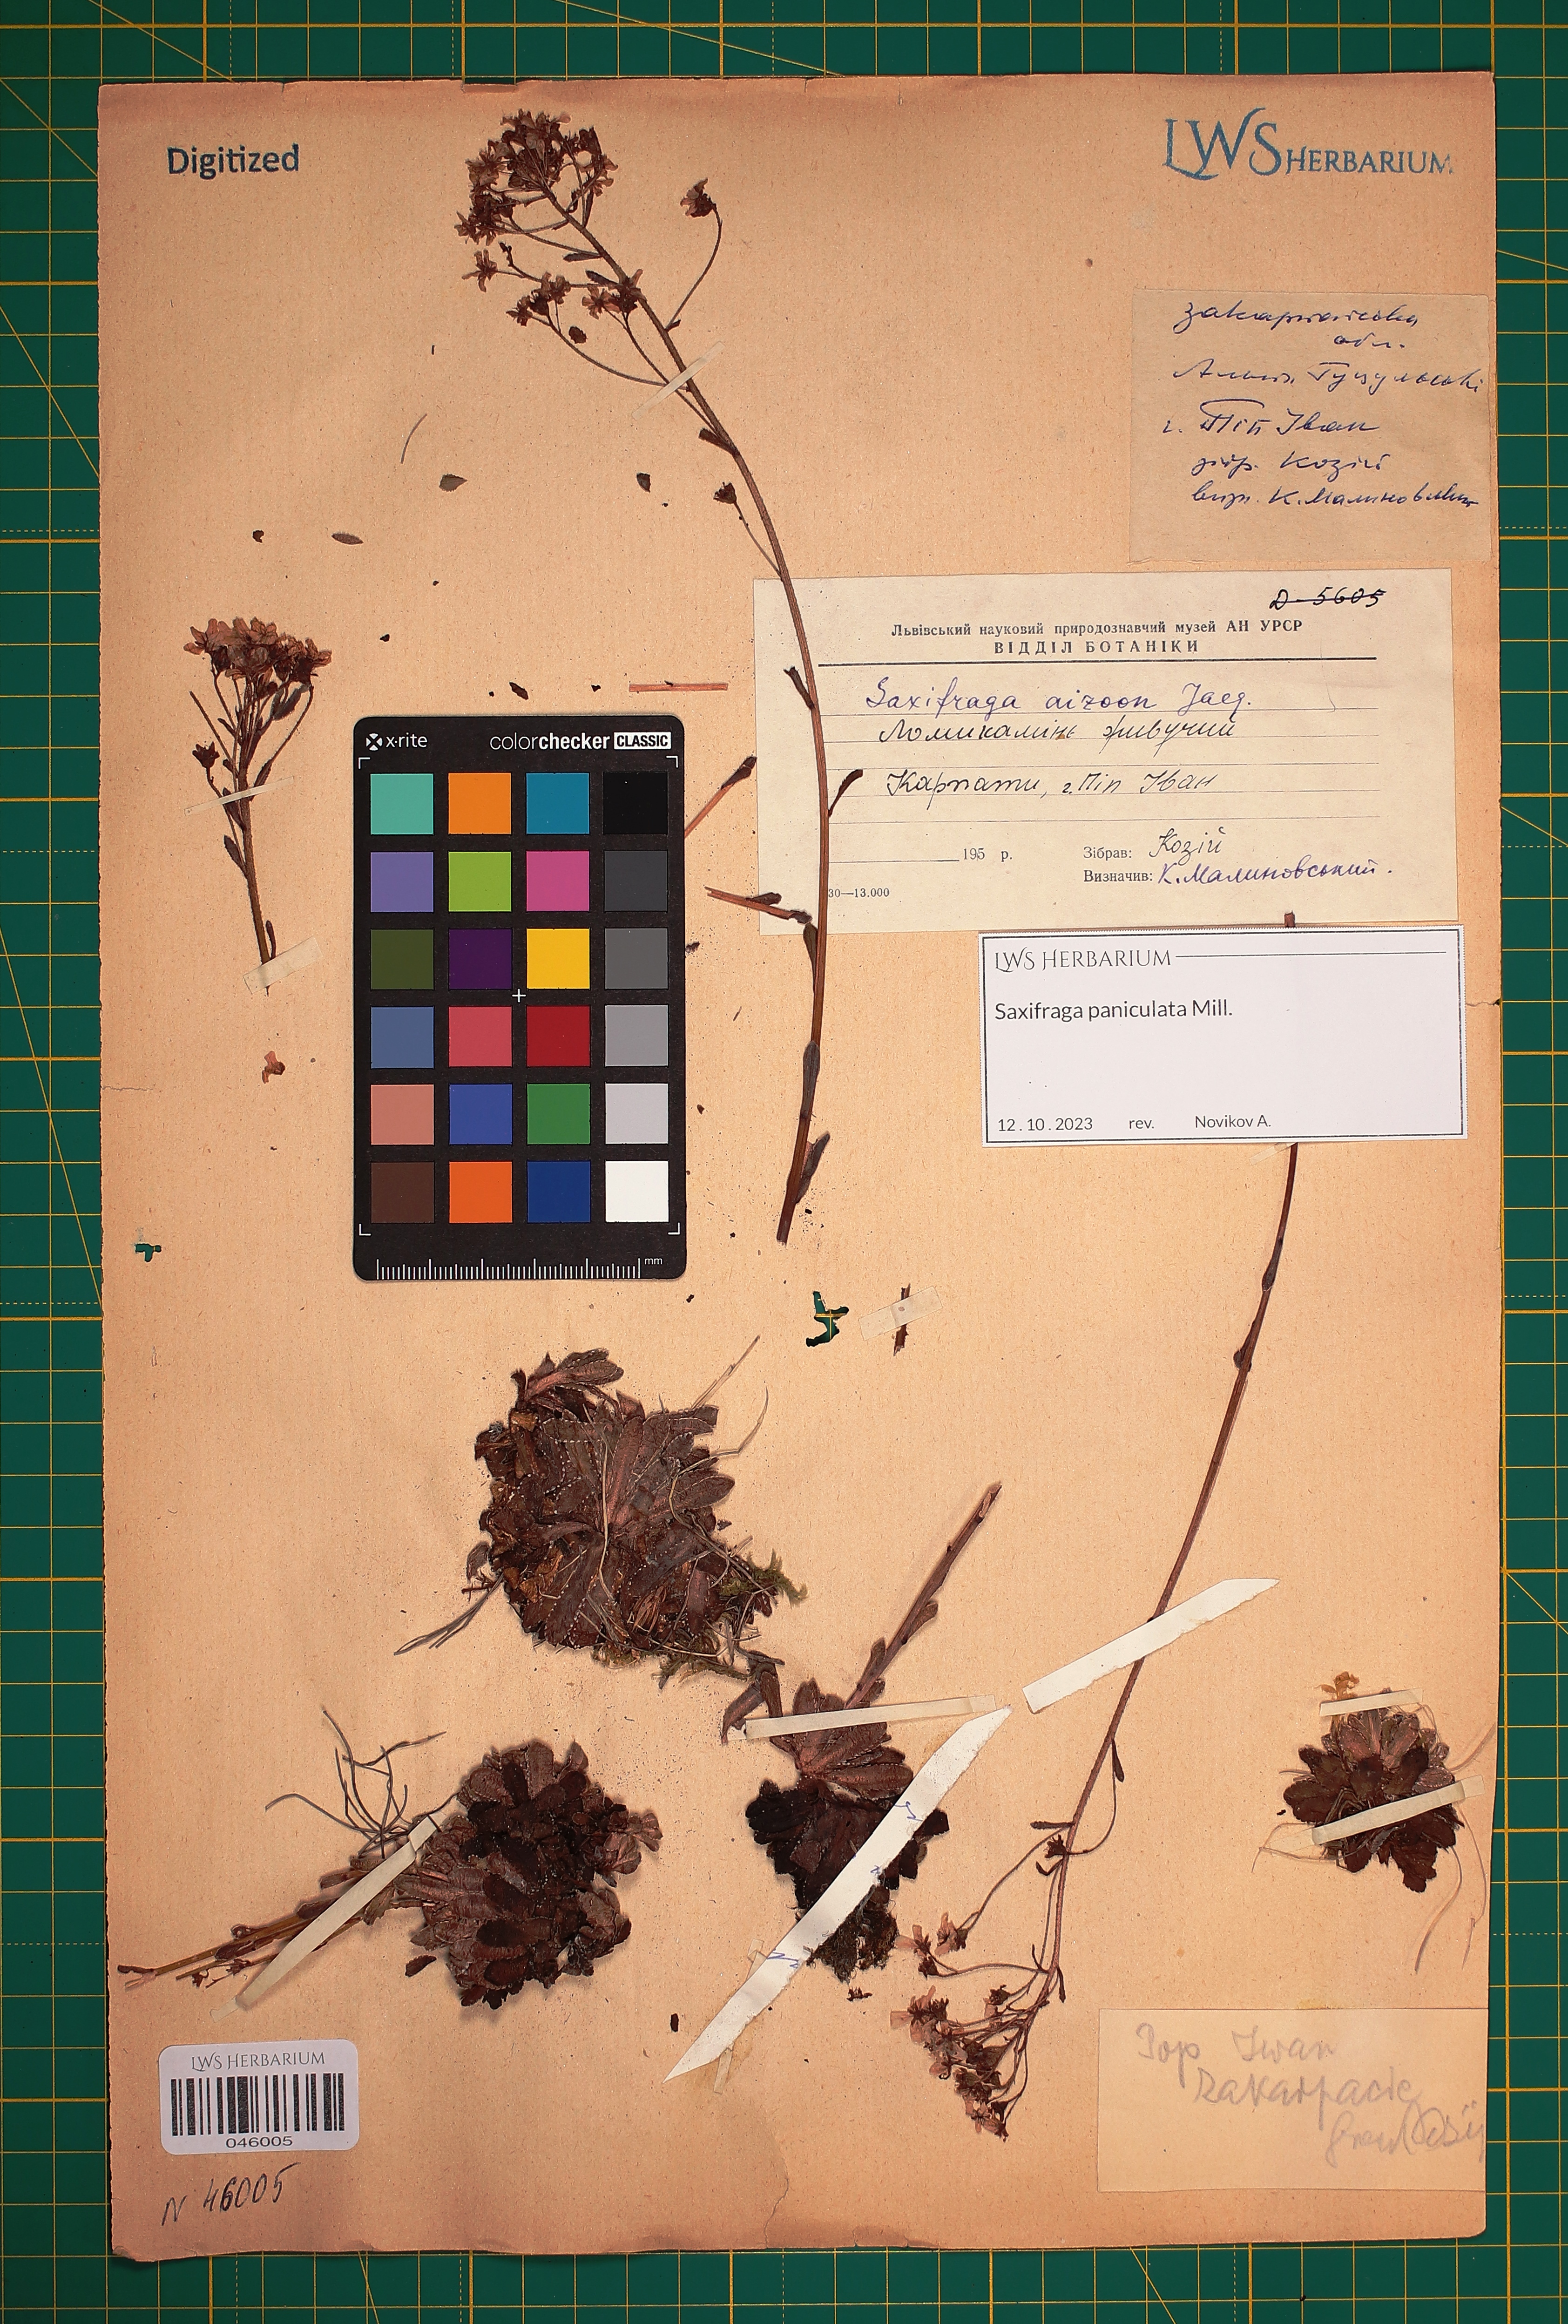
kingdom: Plantae
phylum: Tracheophyta
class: Magnoliopsida
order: Saxifragales
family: Saxifragaceae
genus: Saxifraga
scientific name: Saxifraga paniculata
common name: Livelong saxifrage
